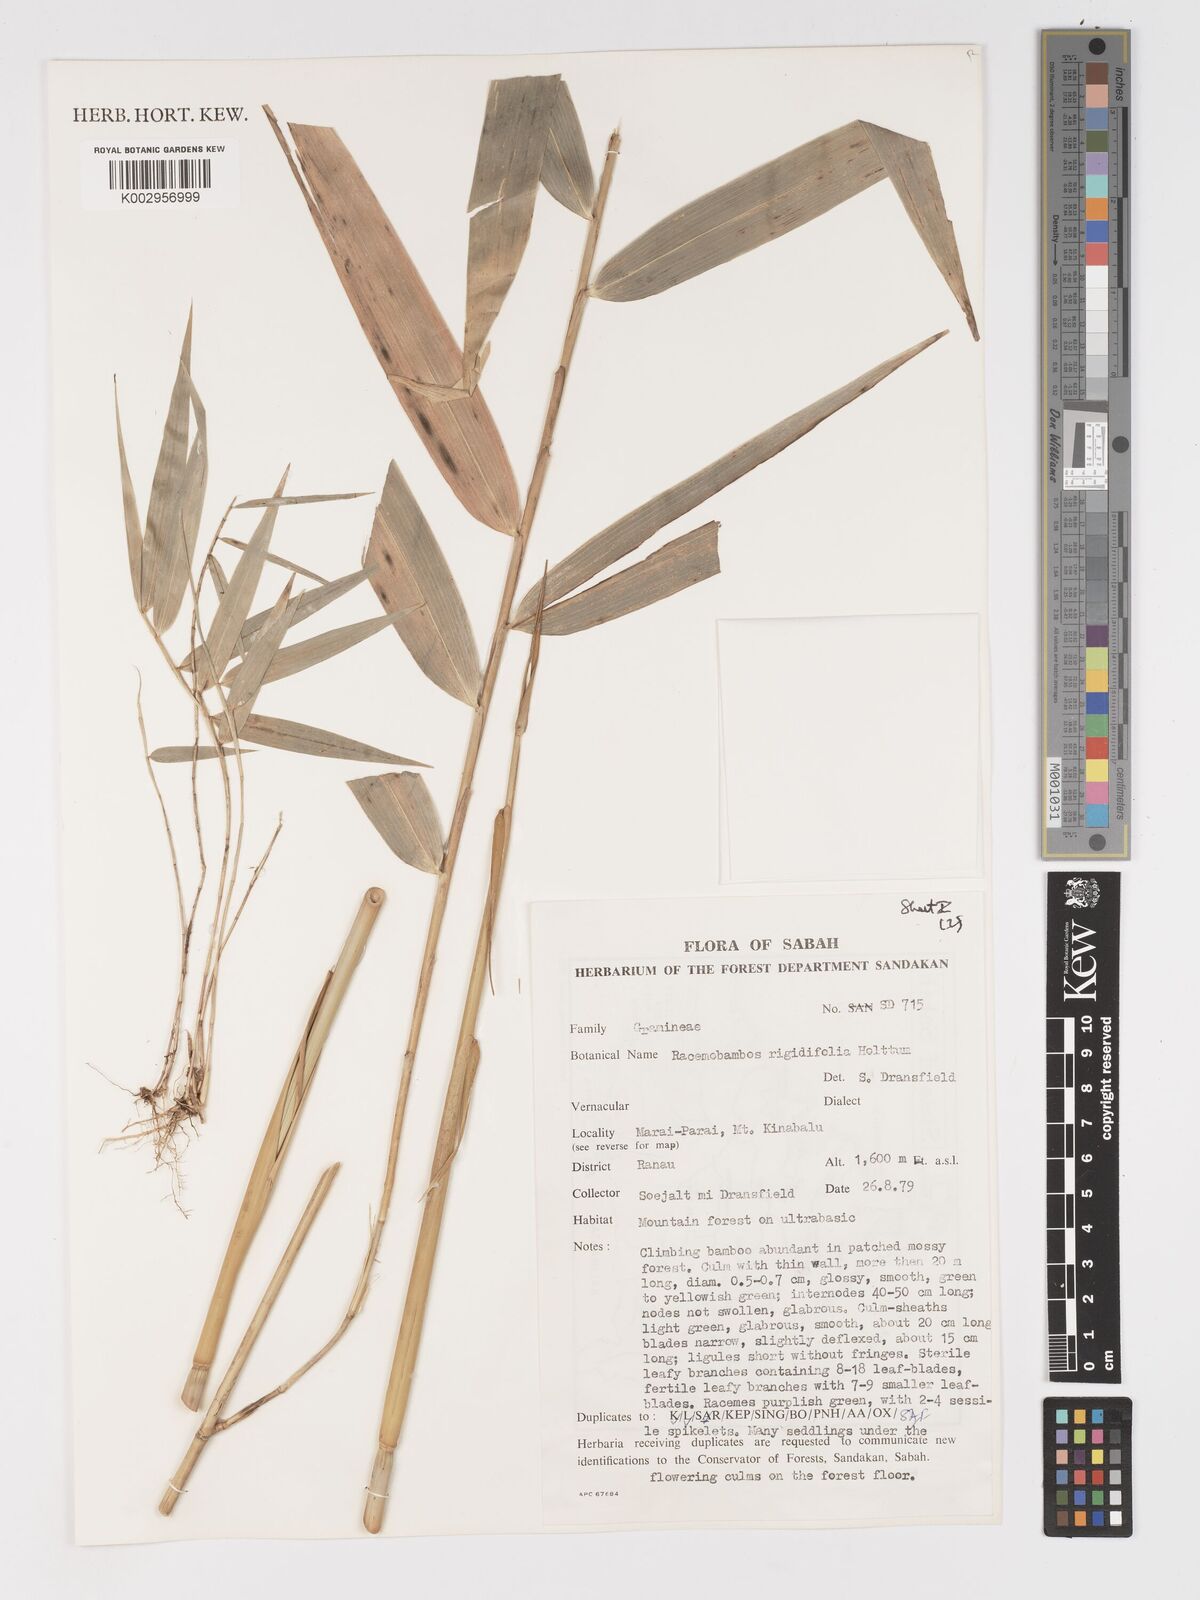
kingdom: Plantae
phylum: Tracheophyta
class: Liliopsida
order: Poales
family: Poaceae
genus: Racemobambos
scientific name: Racemobambos rigidifolia
